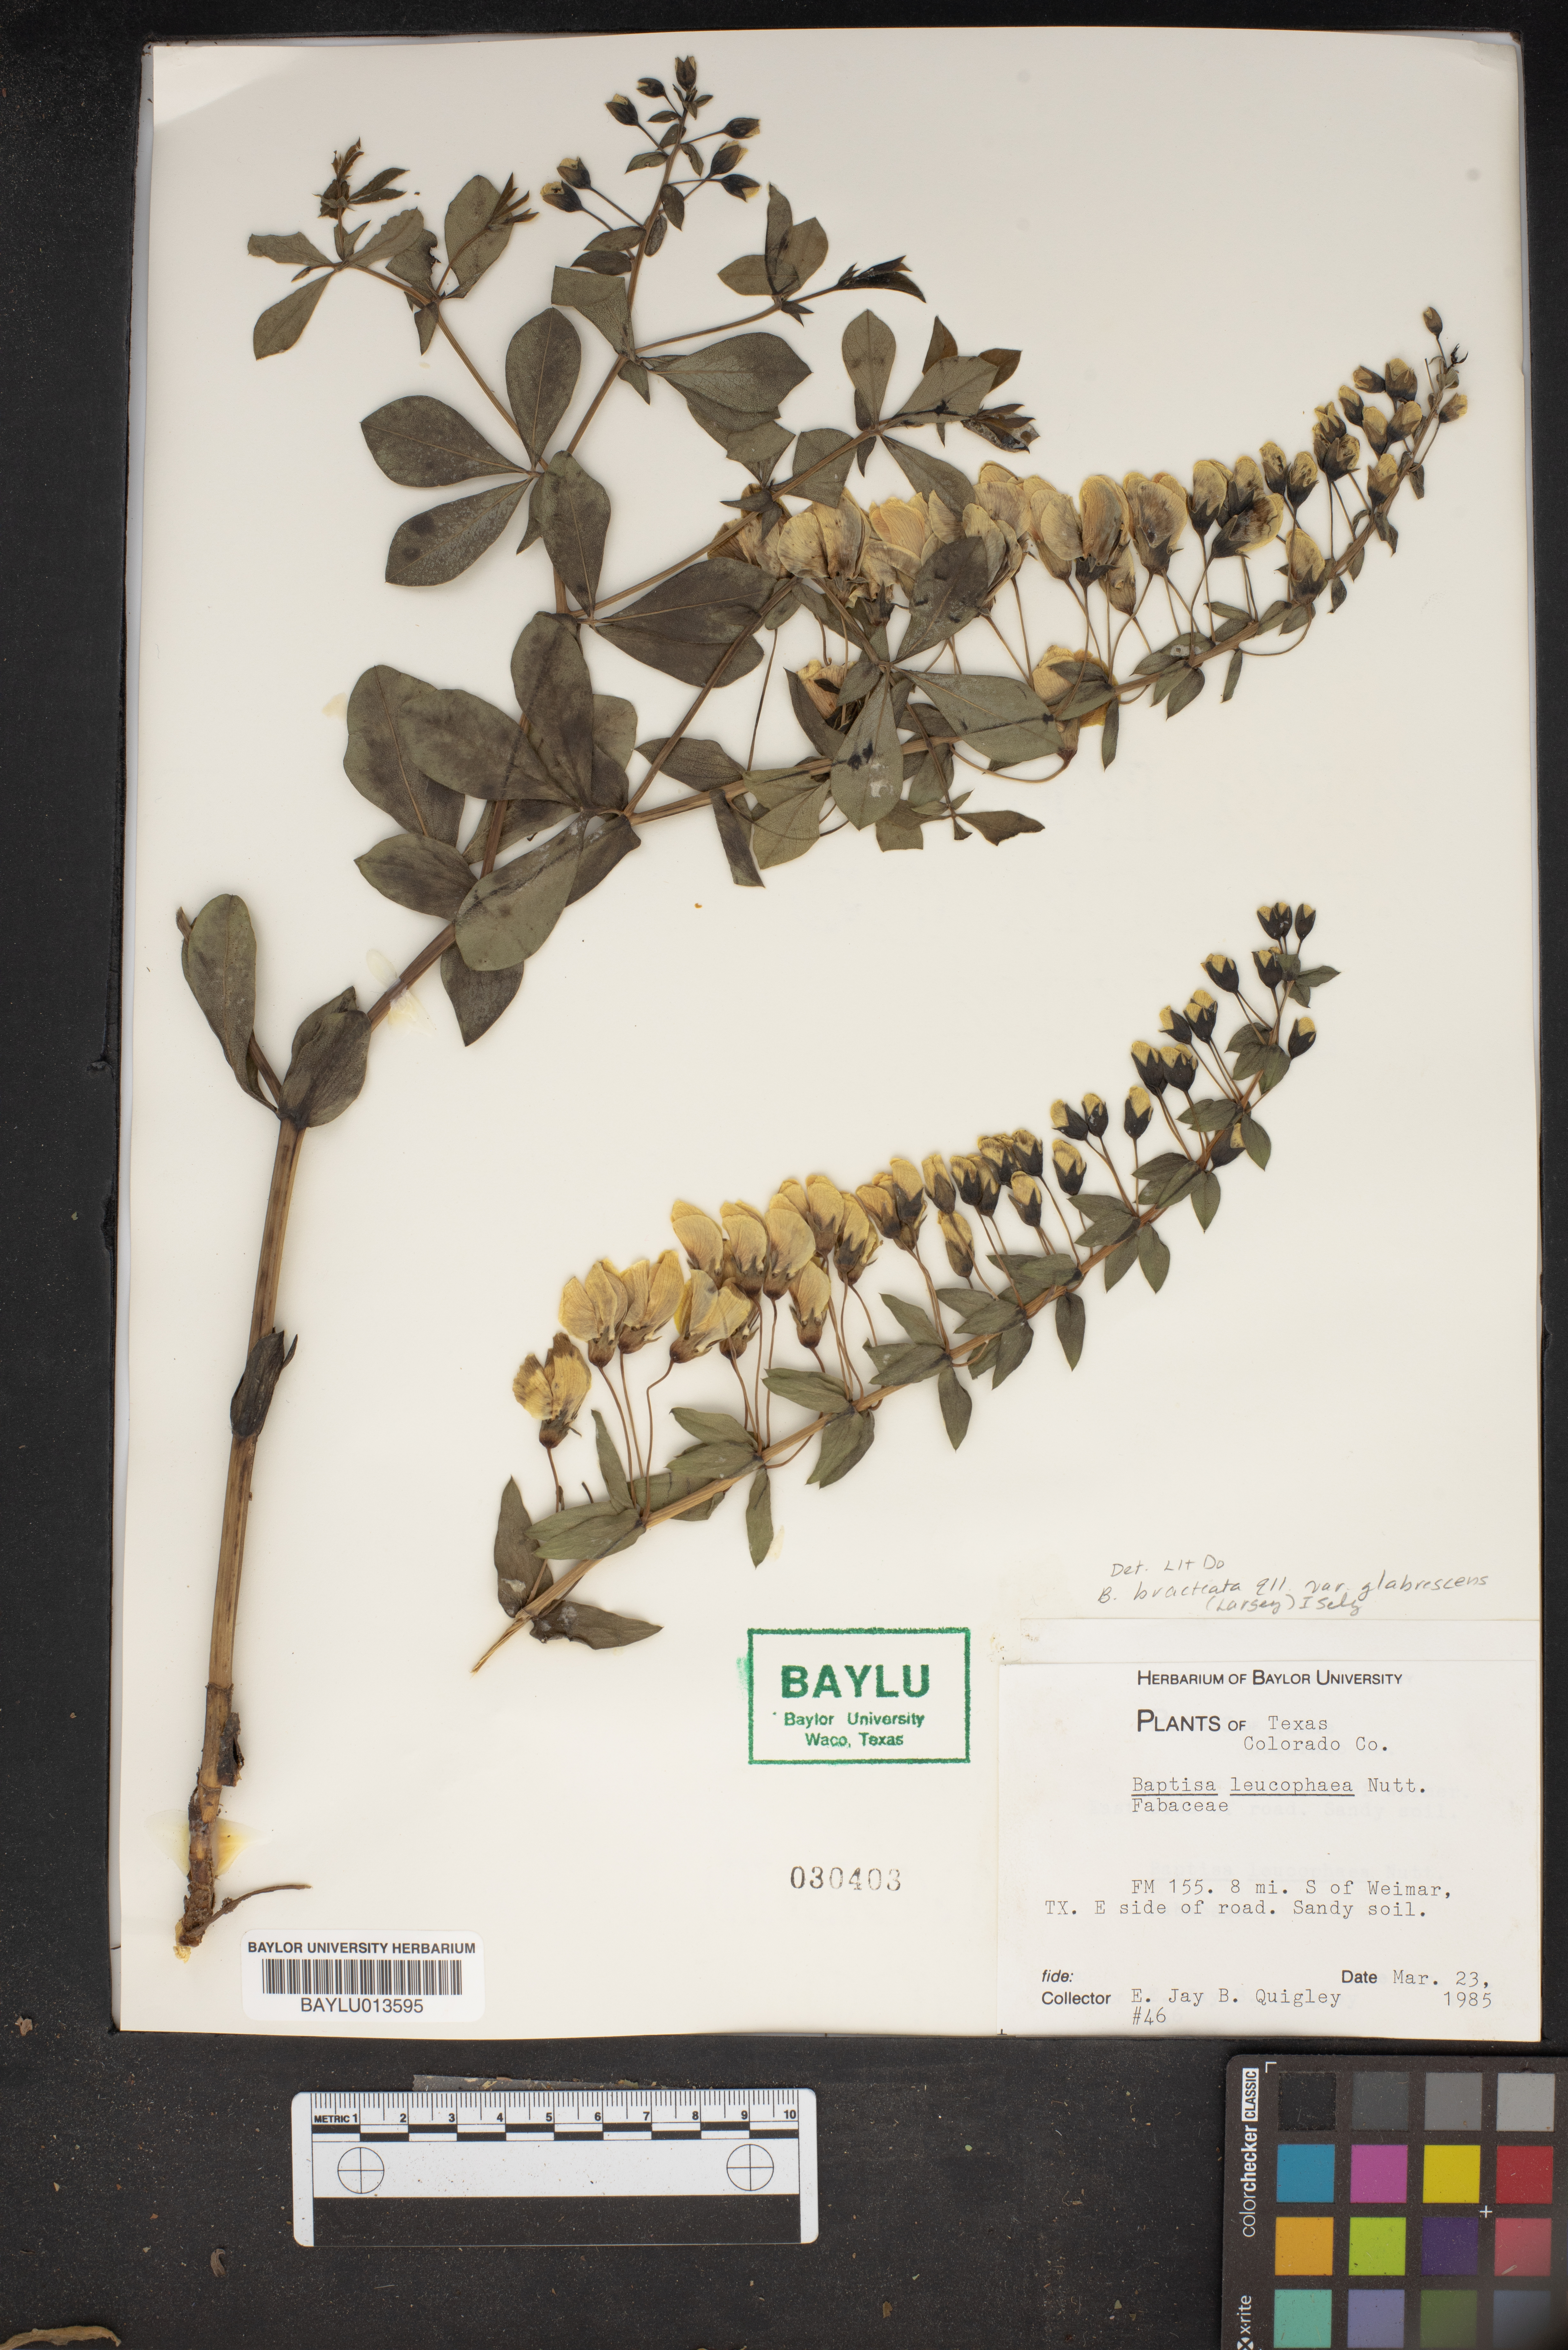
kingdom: Plantae
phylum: Tracheophyta
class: Magnoliopsida
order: Fabales
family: Fabaceae
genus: Baptisia
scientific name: Baptisia bracteata
